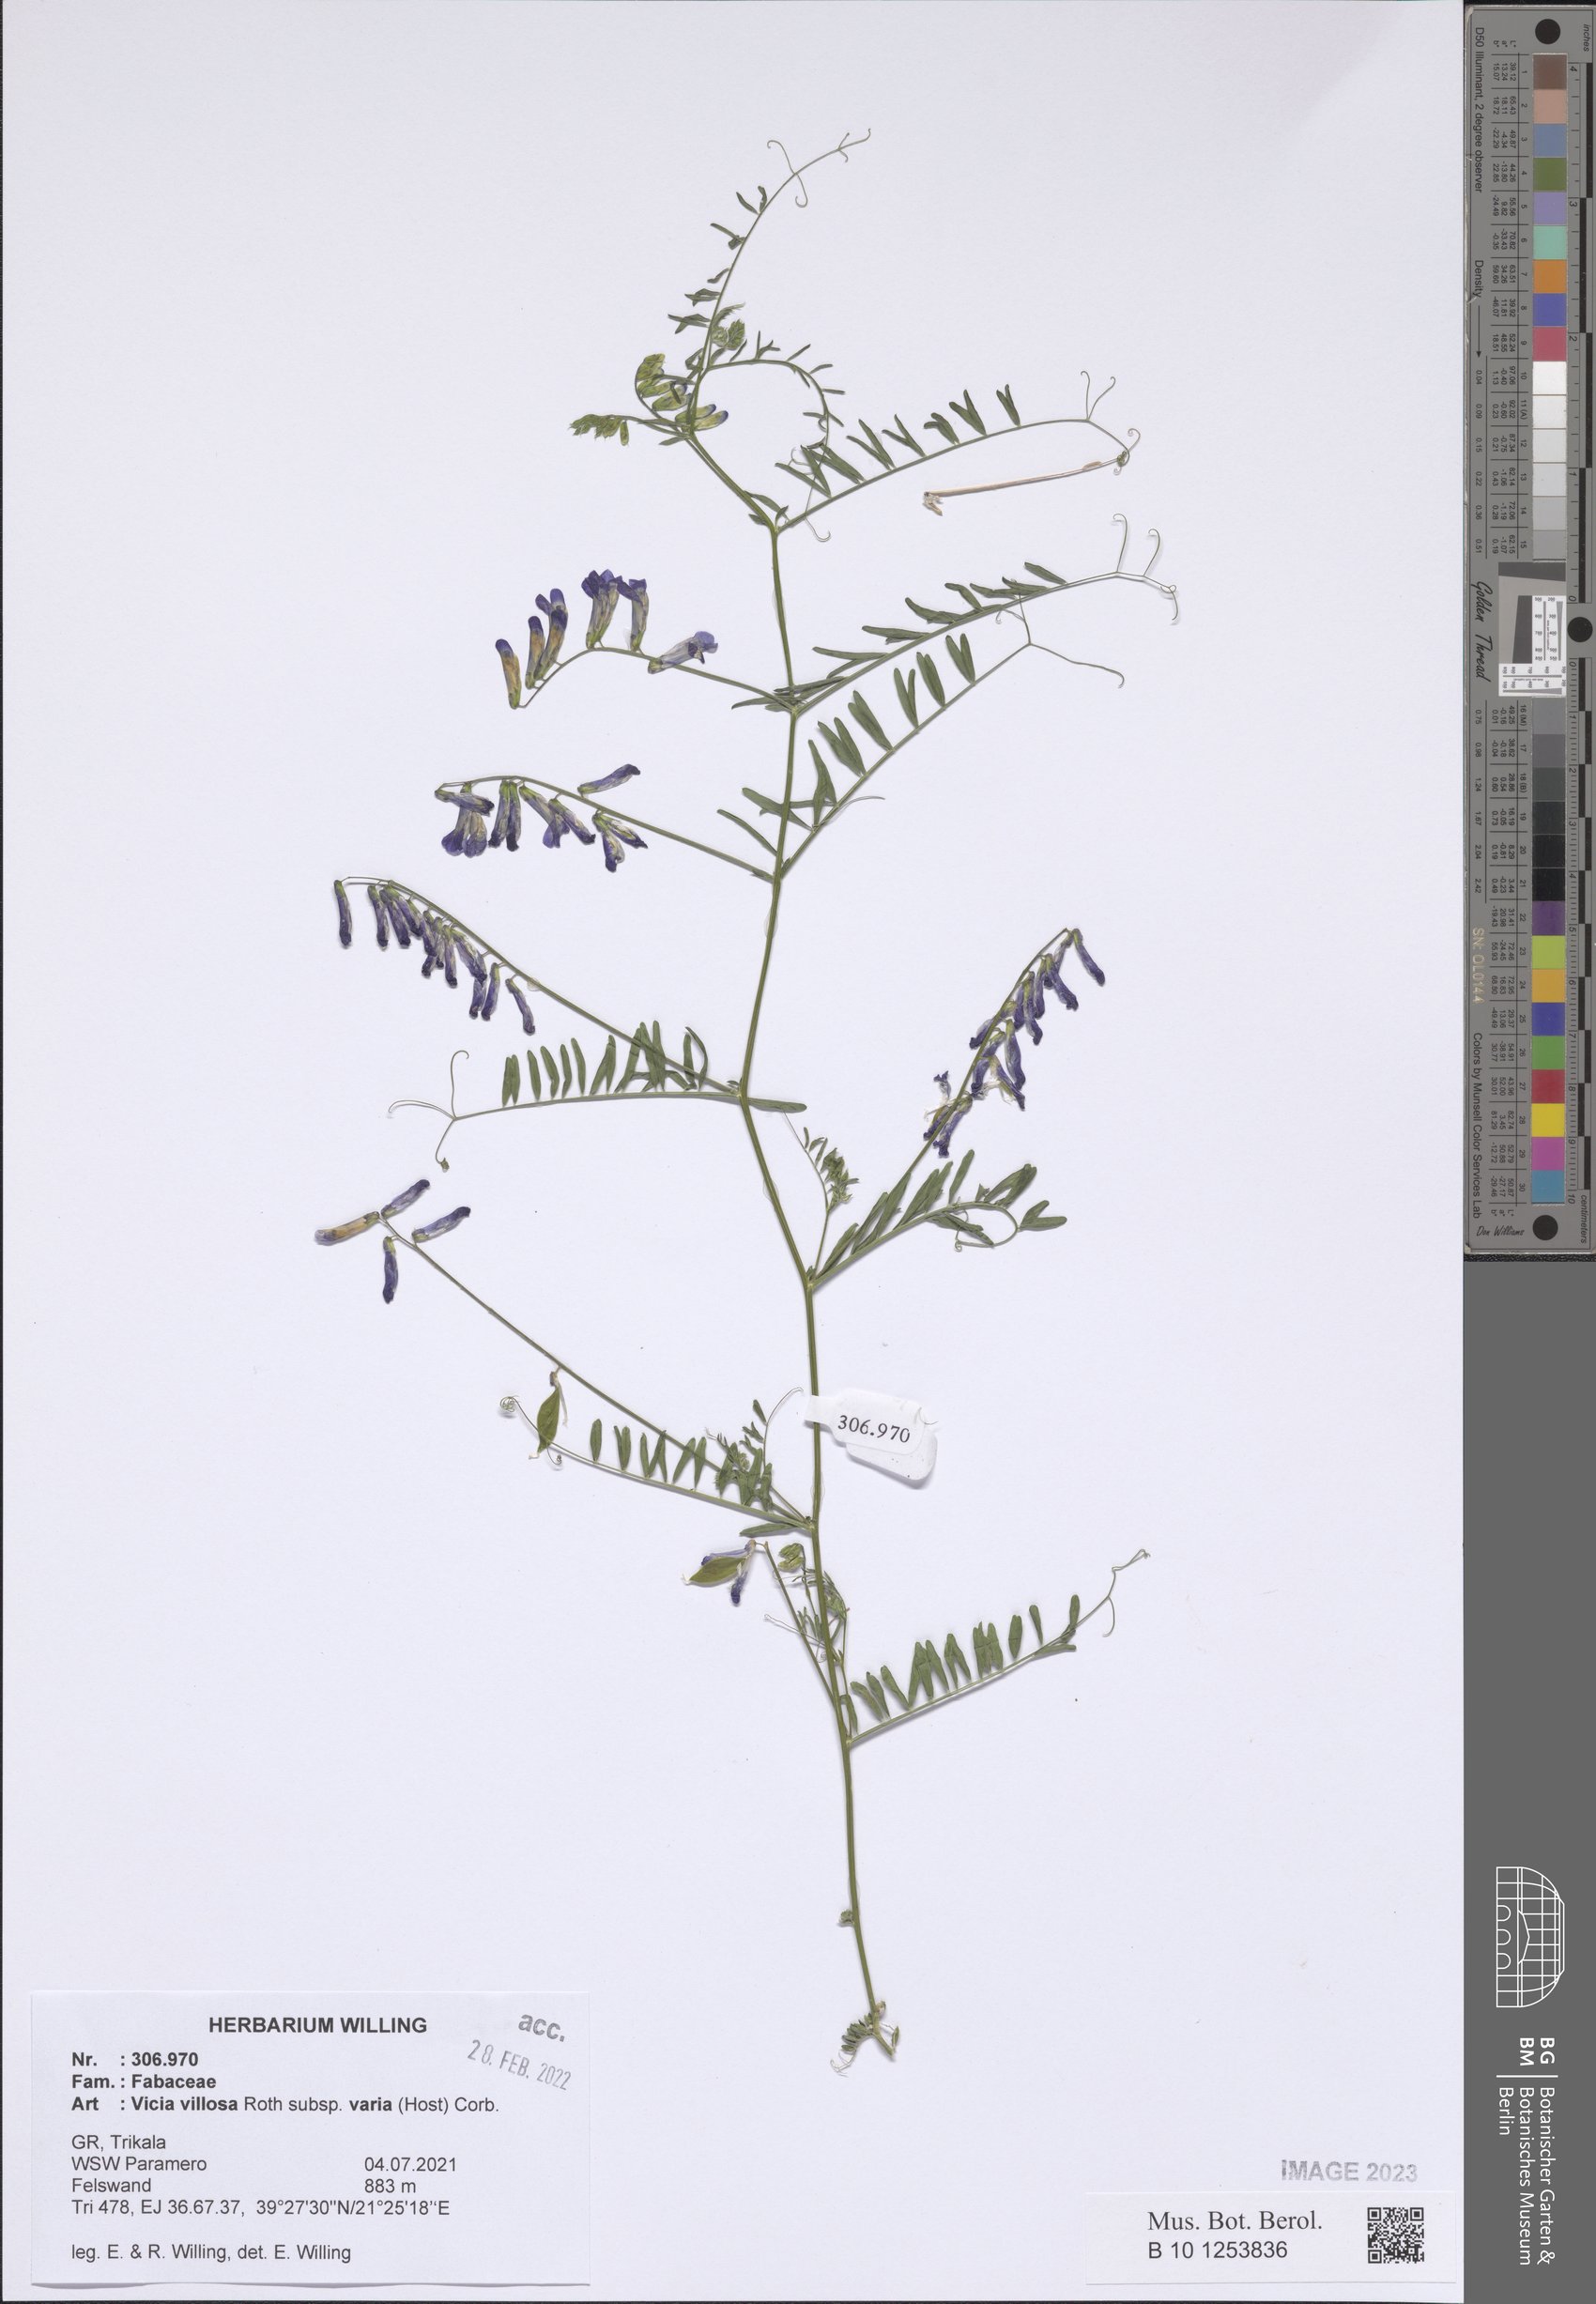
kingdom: Plantae
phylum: Tracheophyta
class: Magnoliopsida
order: Fabales
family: Fabaceae
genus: Vicia
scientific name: Vicia villosa
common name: Fodder vetch
